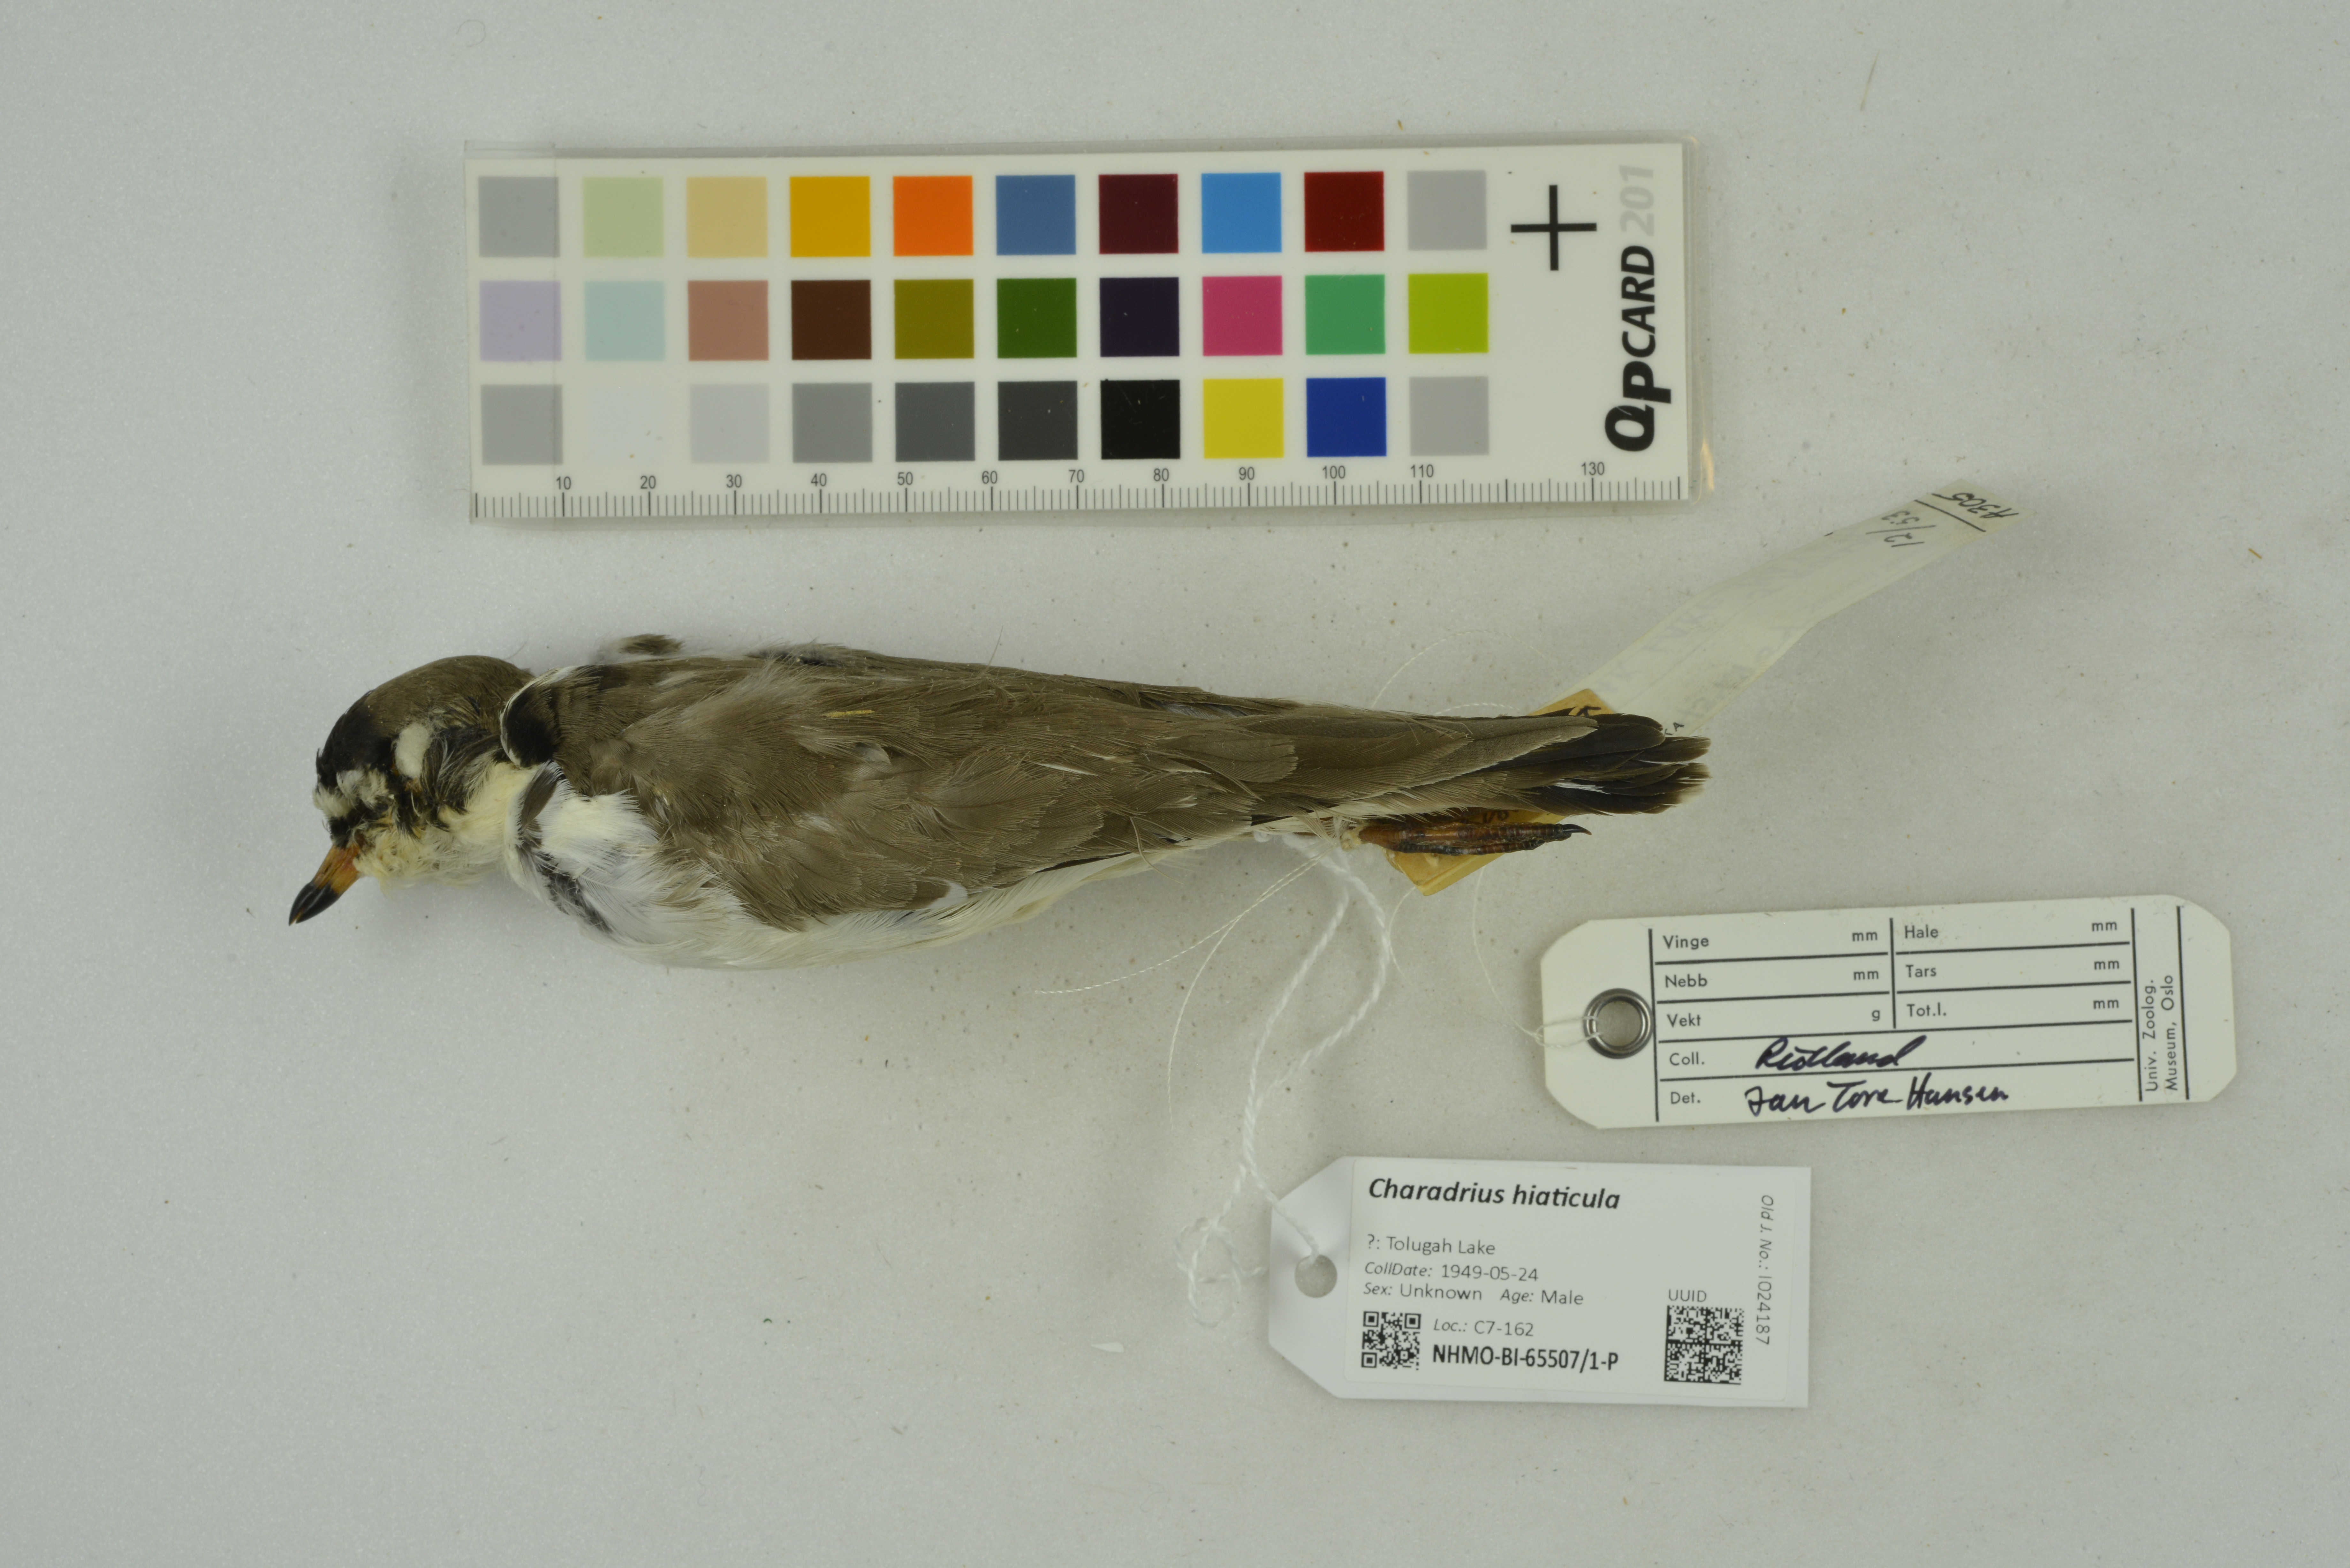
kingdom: Animalia
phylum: Chordata
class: Aves
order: Charadriiformes
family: Charadriidae
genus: Charadrius
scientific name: Charadrius hiaticula
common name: Common ringed plover
